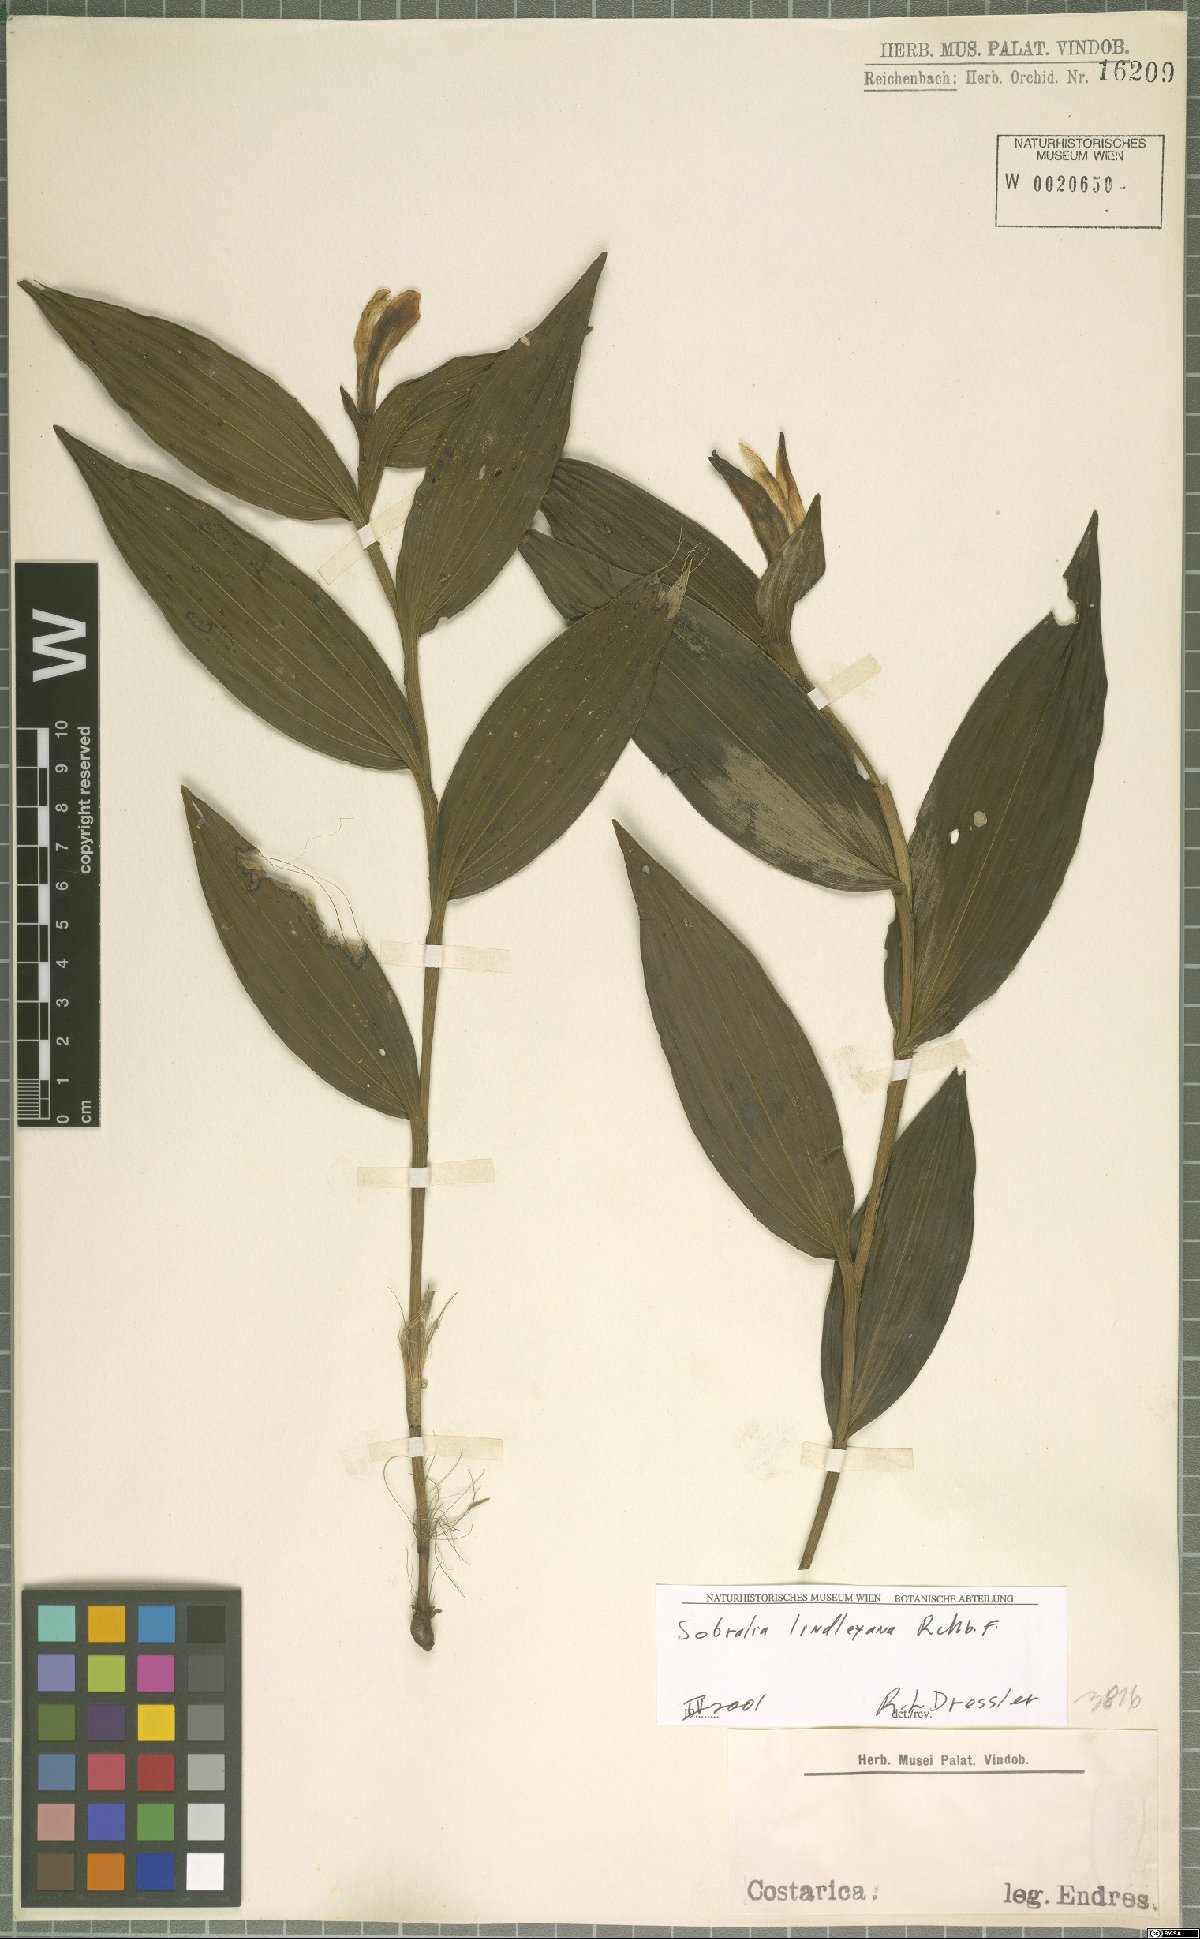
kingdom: Plantae
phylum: Tracheophyta
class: Liliopsida
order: Asparagales
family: Orchidaceae
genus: Sobralia
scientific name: Sobralia lindleyana
